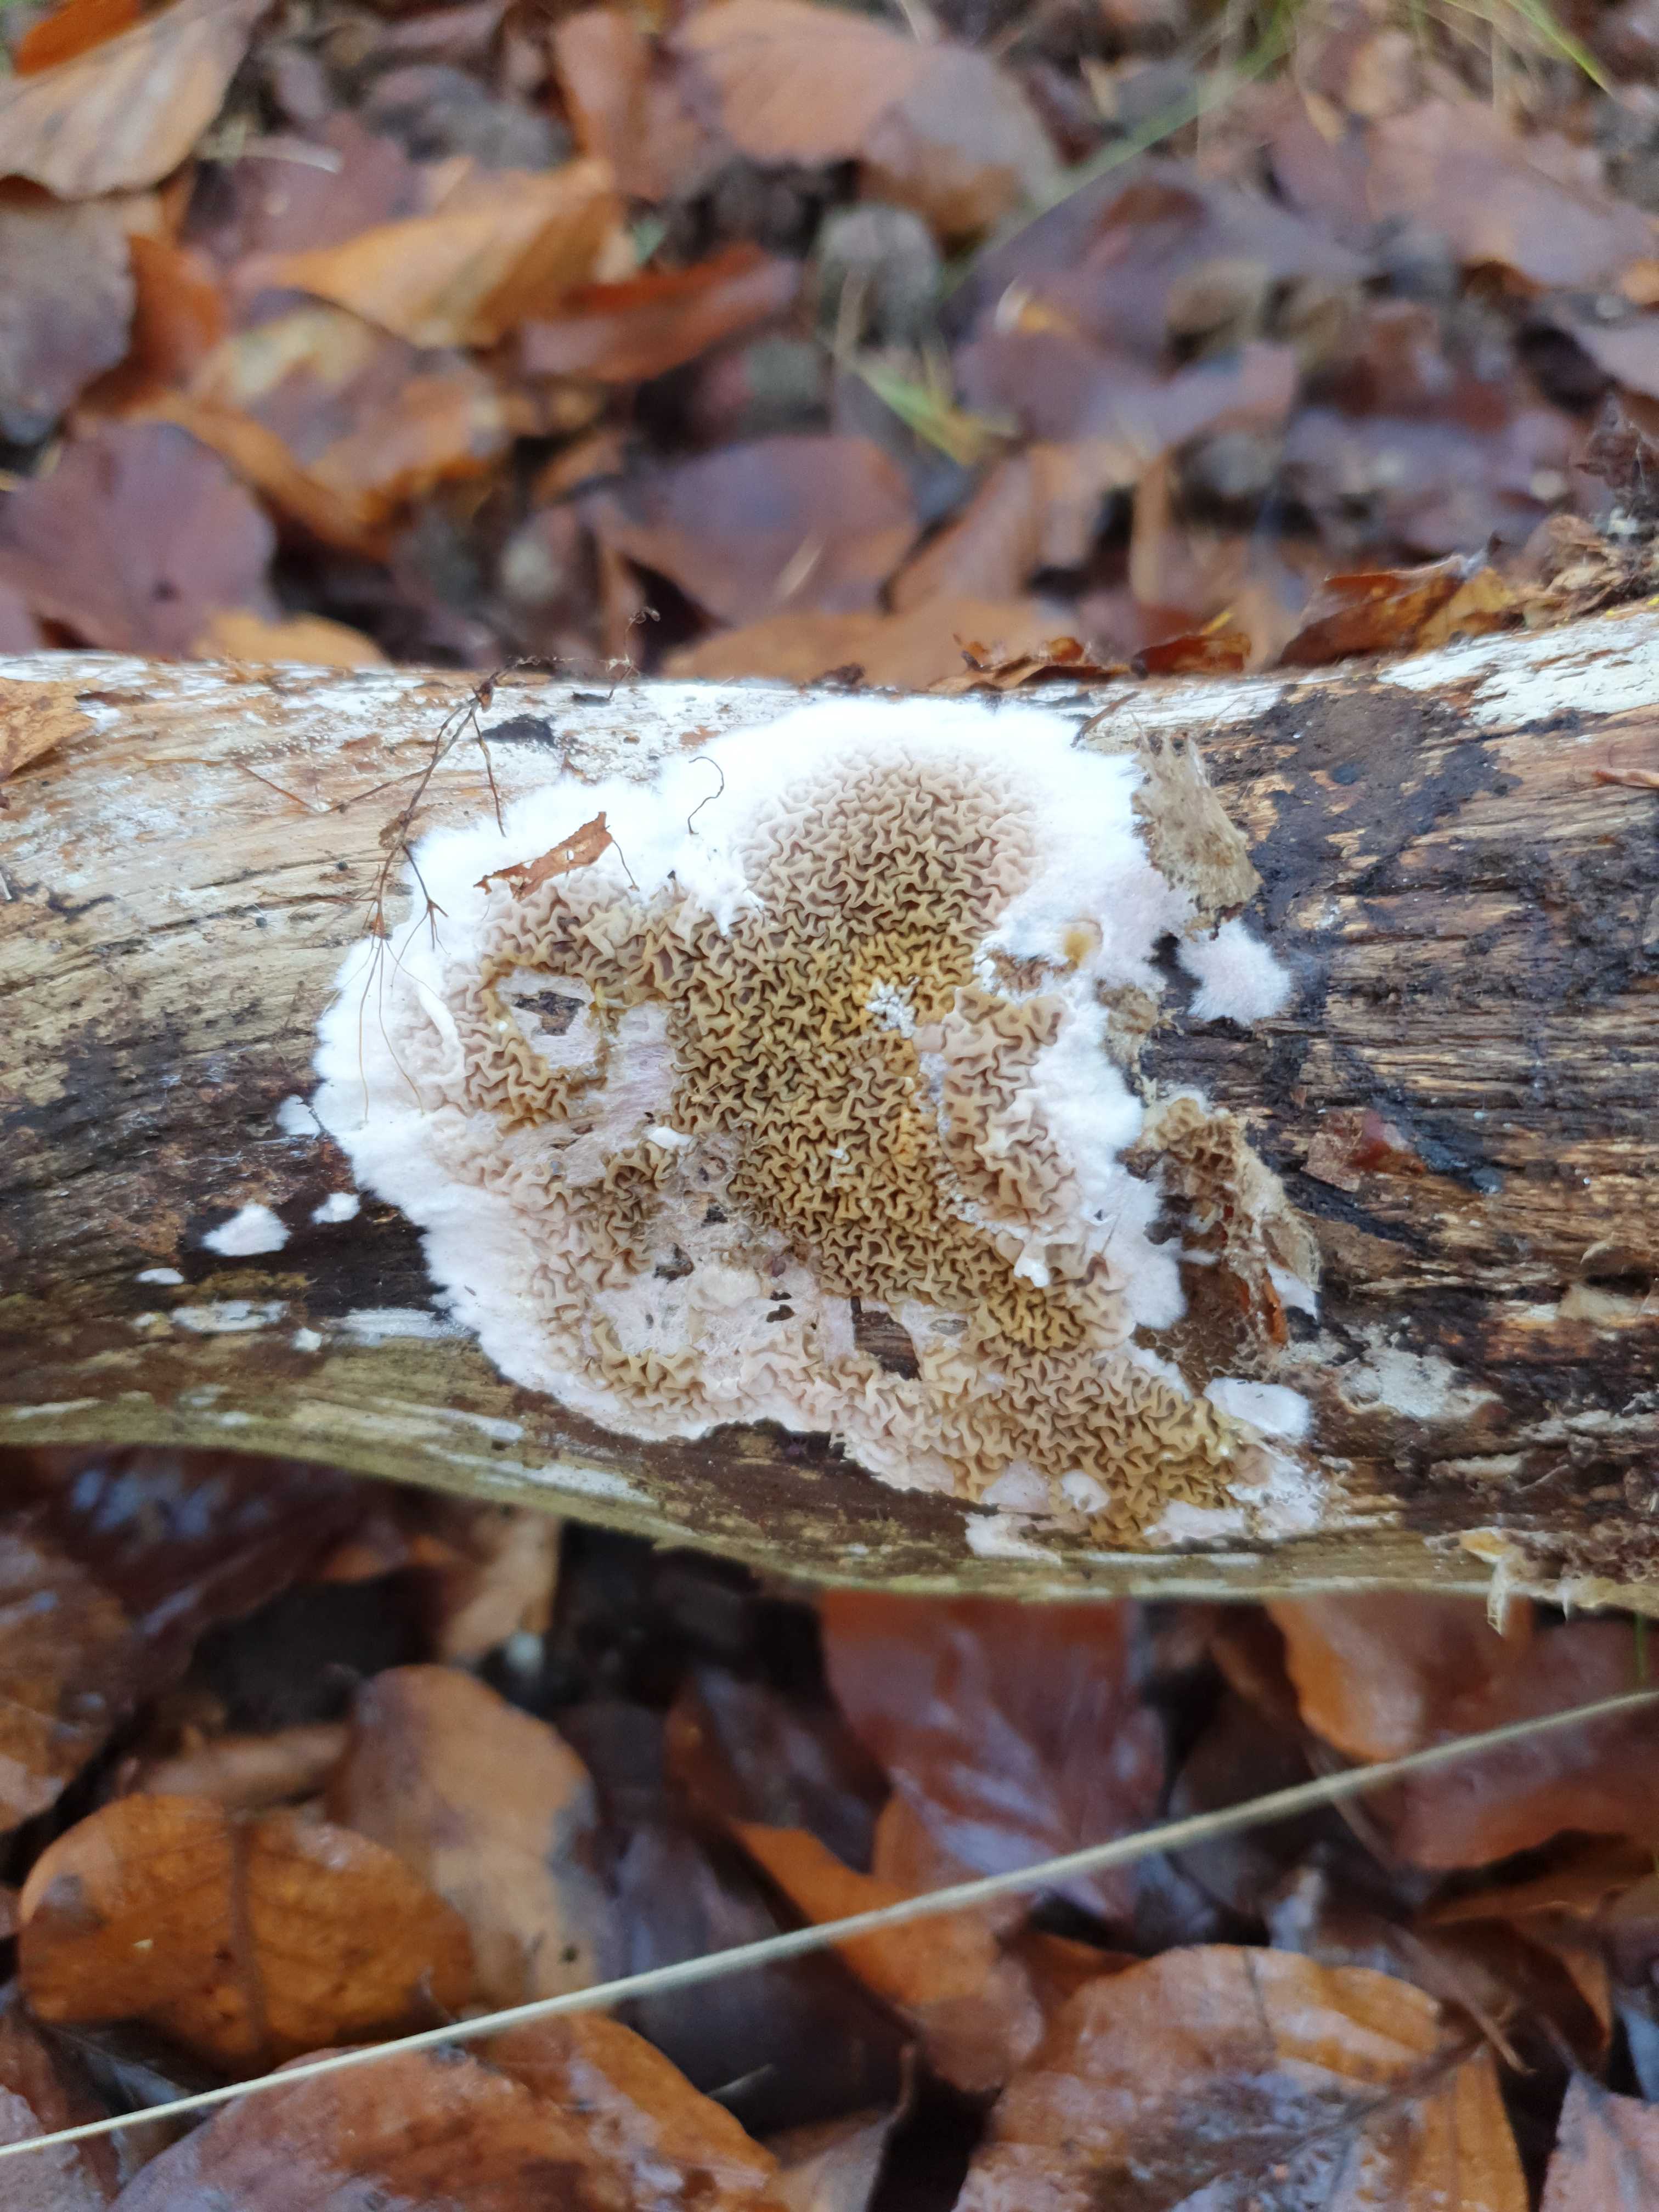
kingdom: Fungi
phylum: Basidiomycota
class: Agaricomycetes
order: Boletales
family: Serpulaceae
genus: Serpula
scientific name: Serpula himantioides
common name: tyndkødet hussvamp
